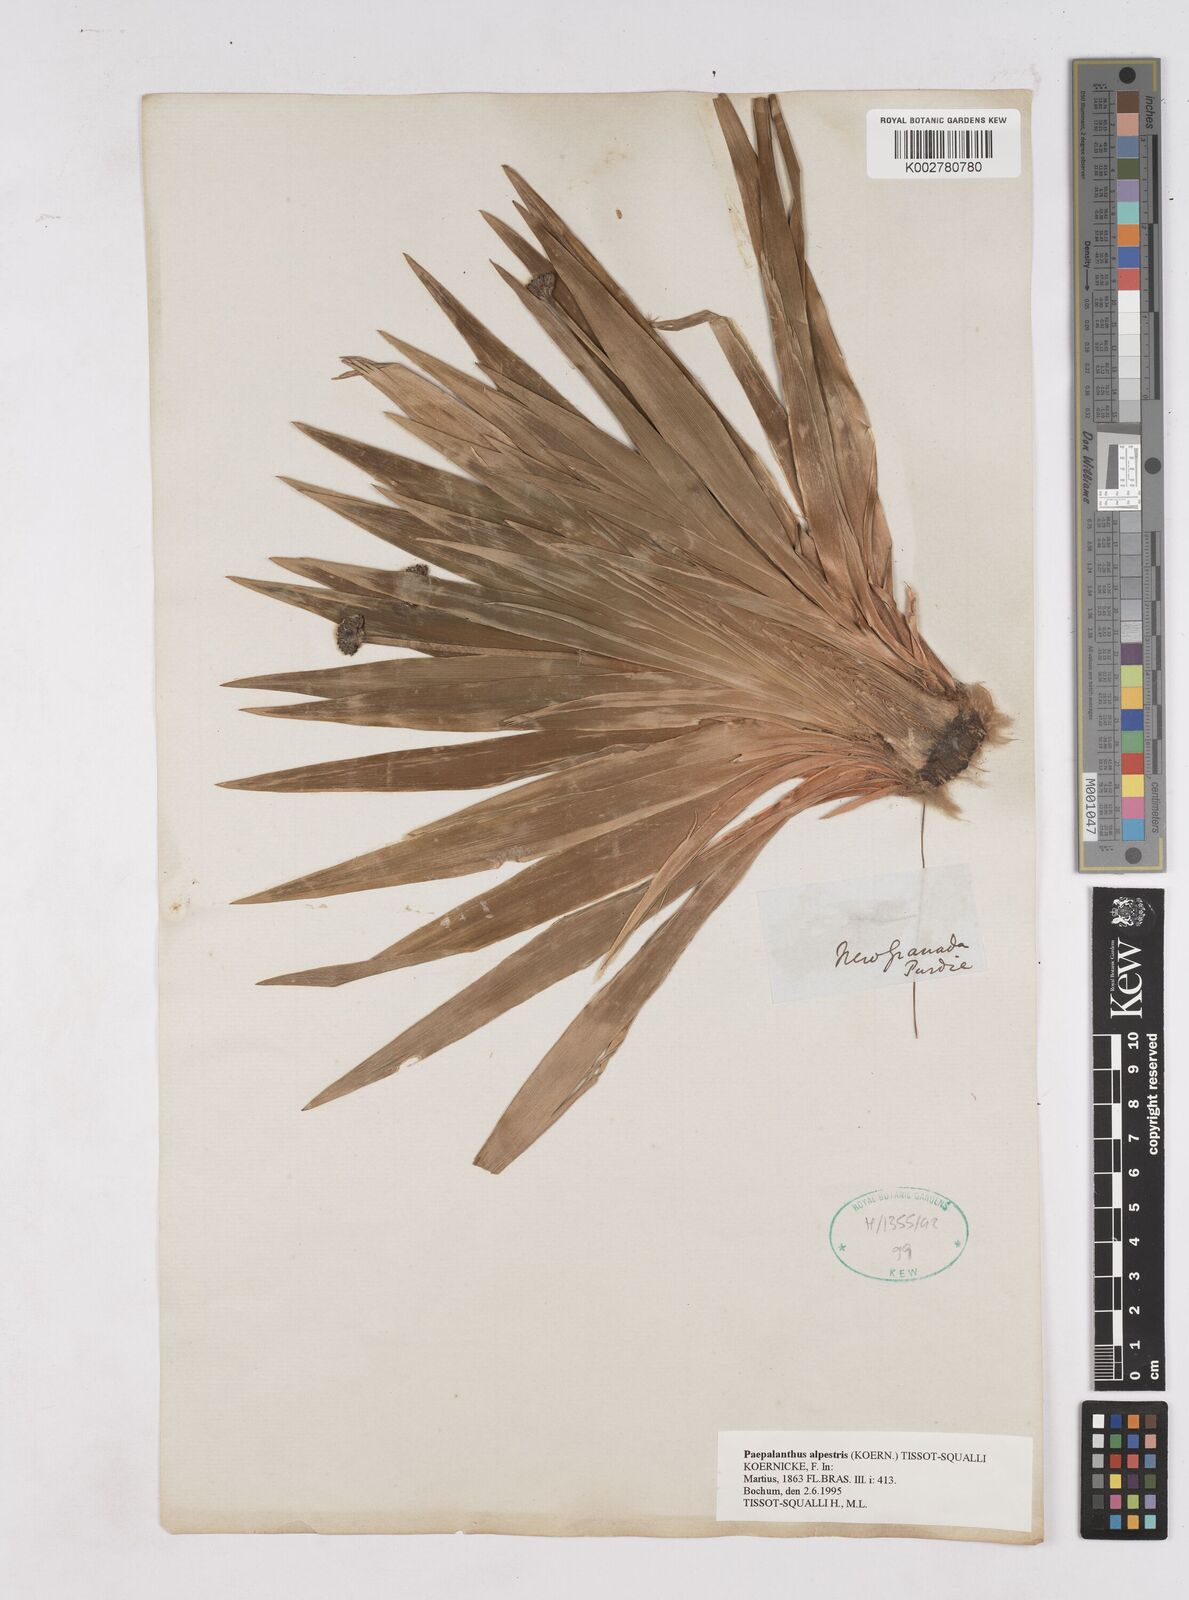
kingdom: Plantae
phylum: Tracheophyta
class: Liliopsida
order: Poales
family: Eriocaulaceae
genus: Paepalanthus
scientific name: Paepalanthus alpestris
